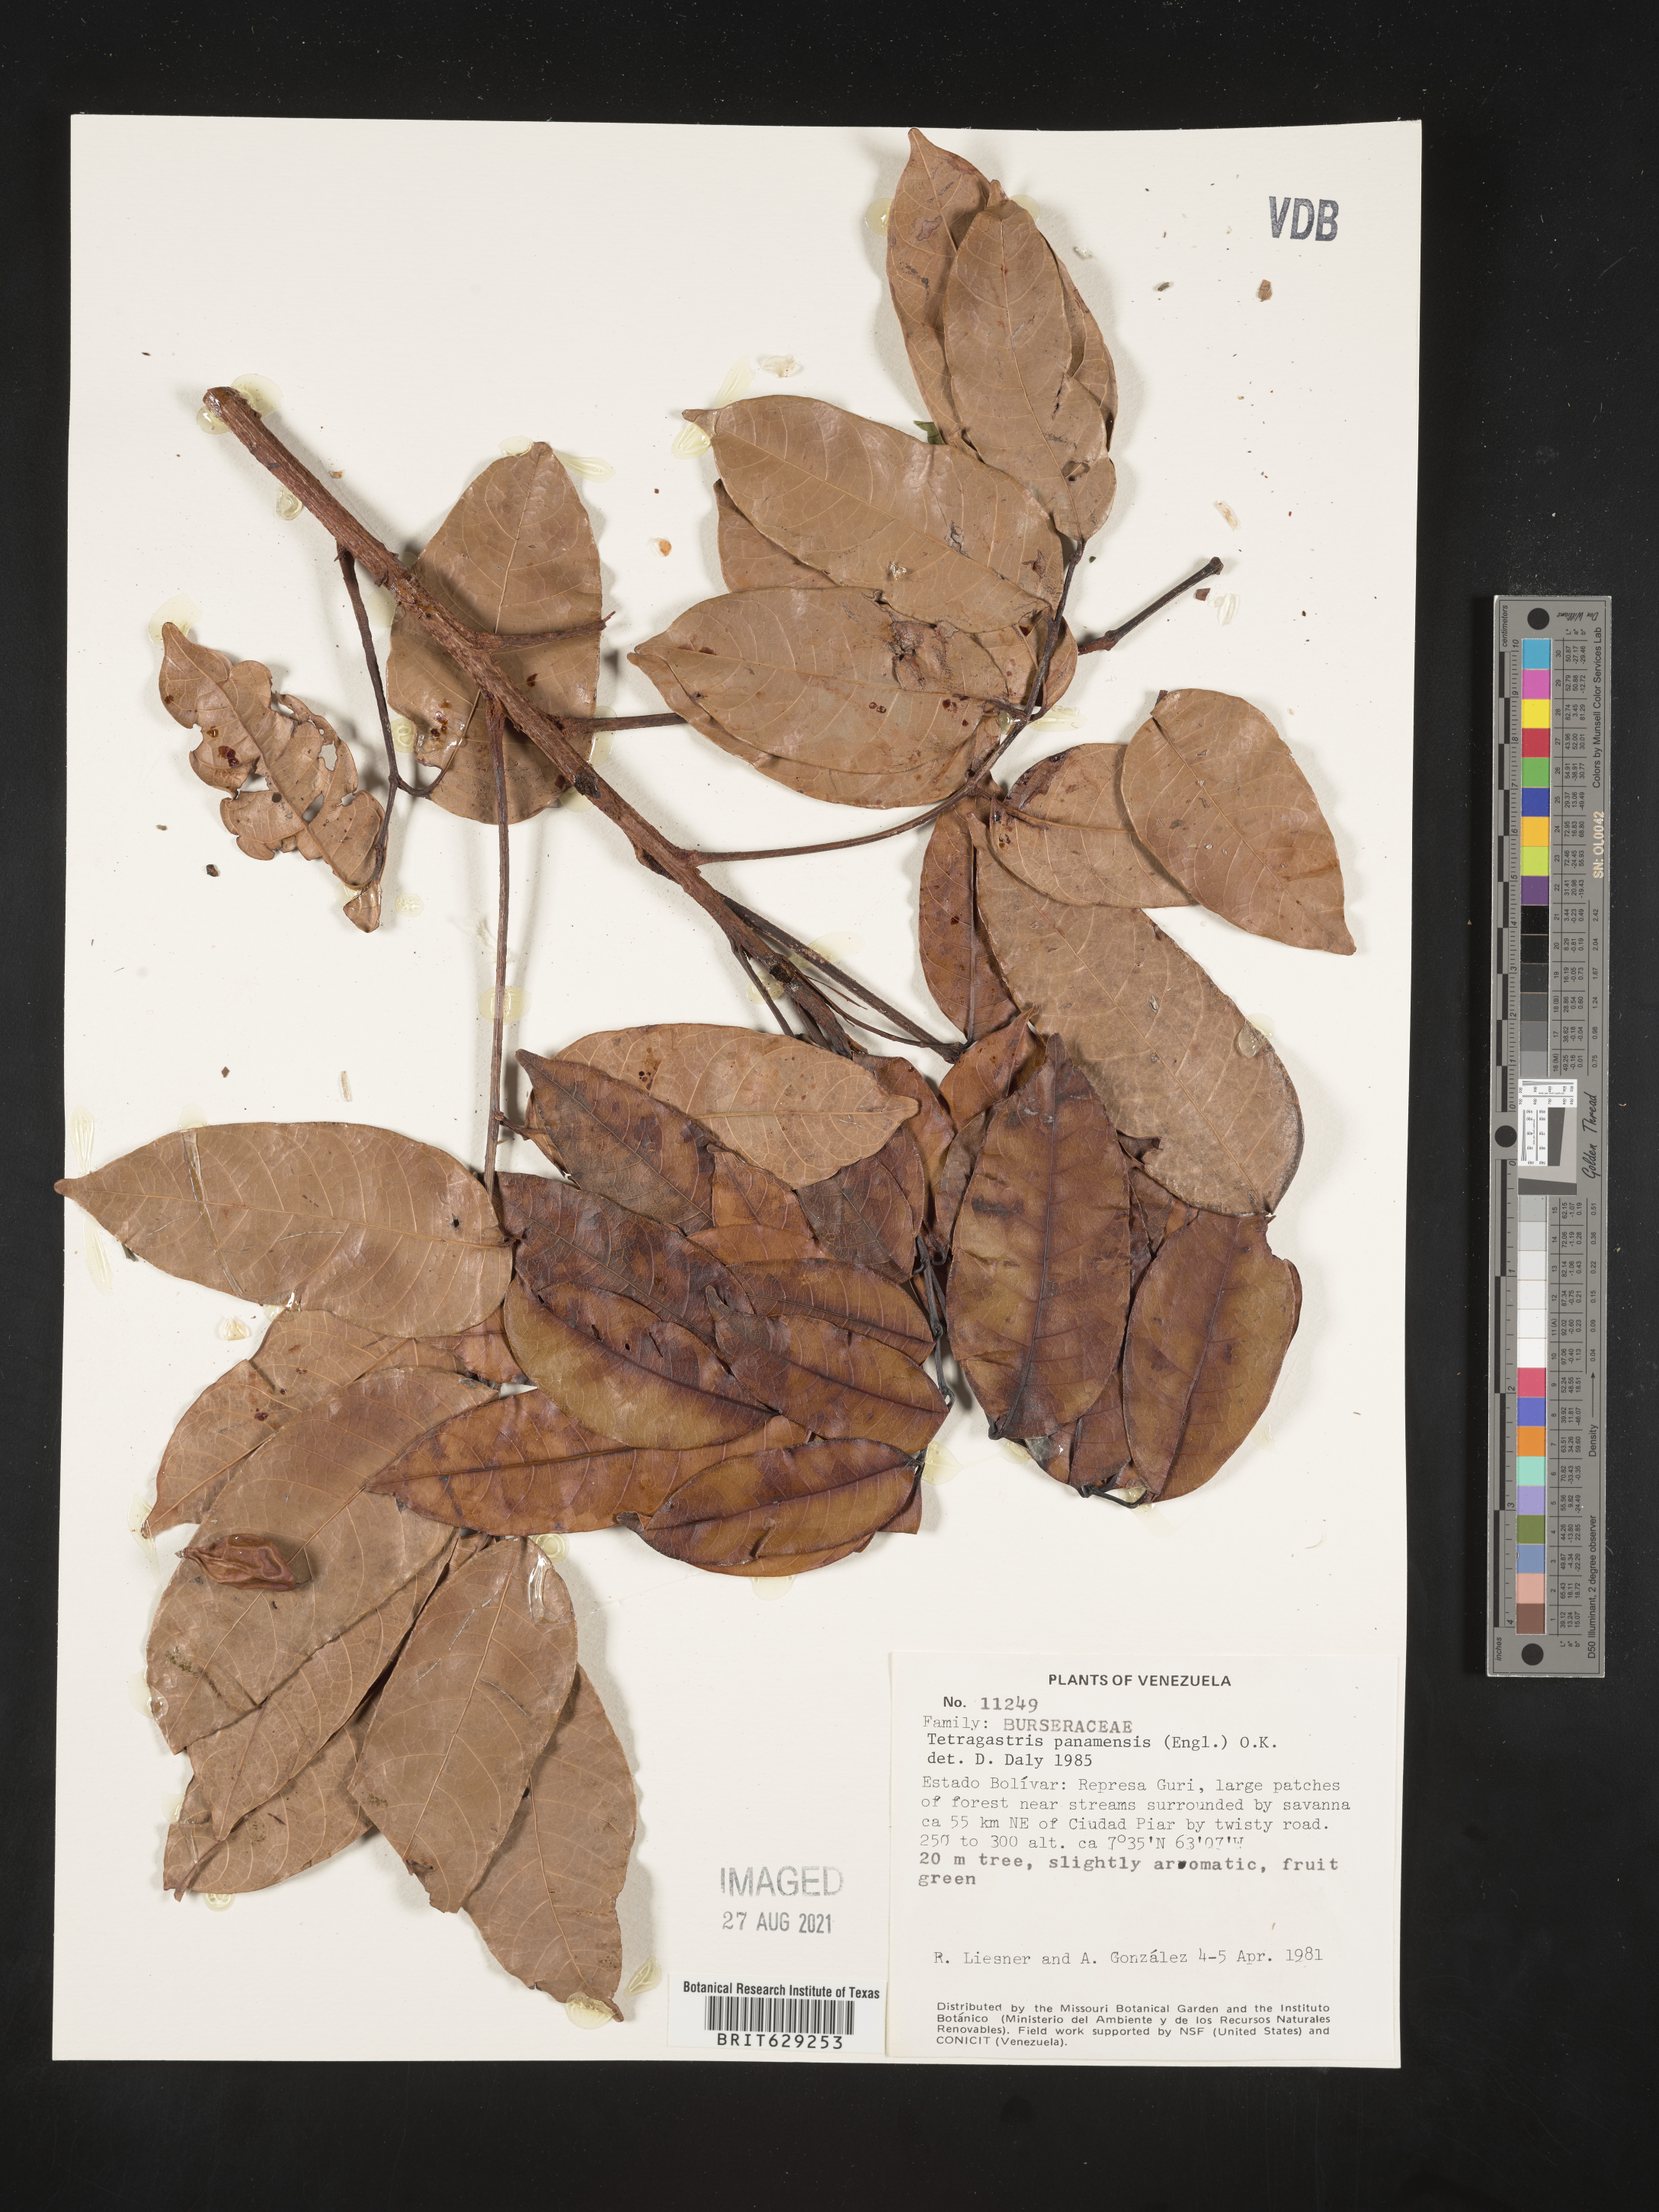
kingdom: Plantae
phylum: Tracheophyta
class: Magnoliopsida
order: Sapindales
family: Burseraceae
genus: Tetragastris
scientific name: Tetragastris panamensis
